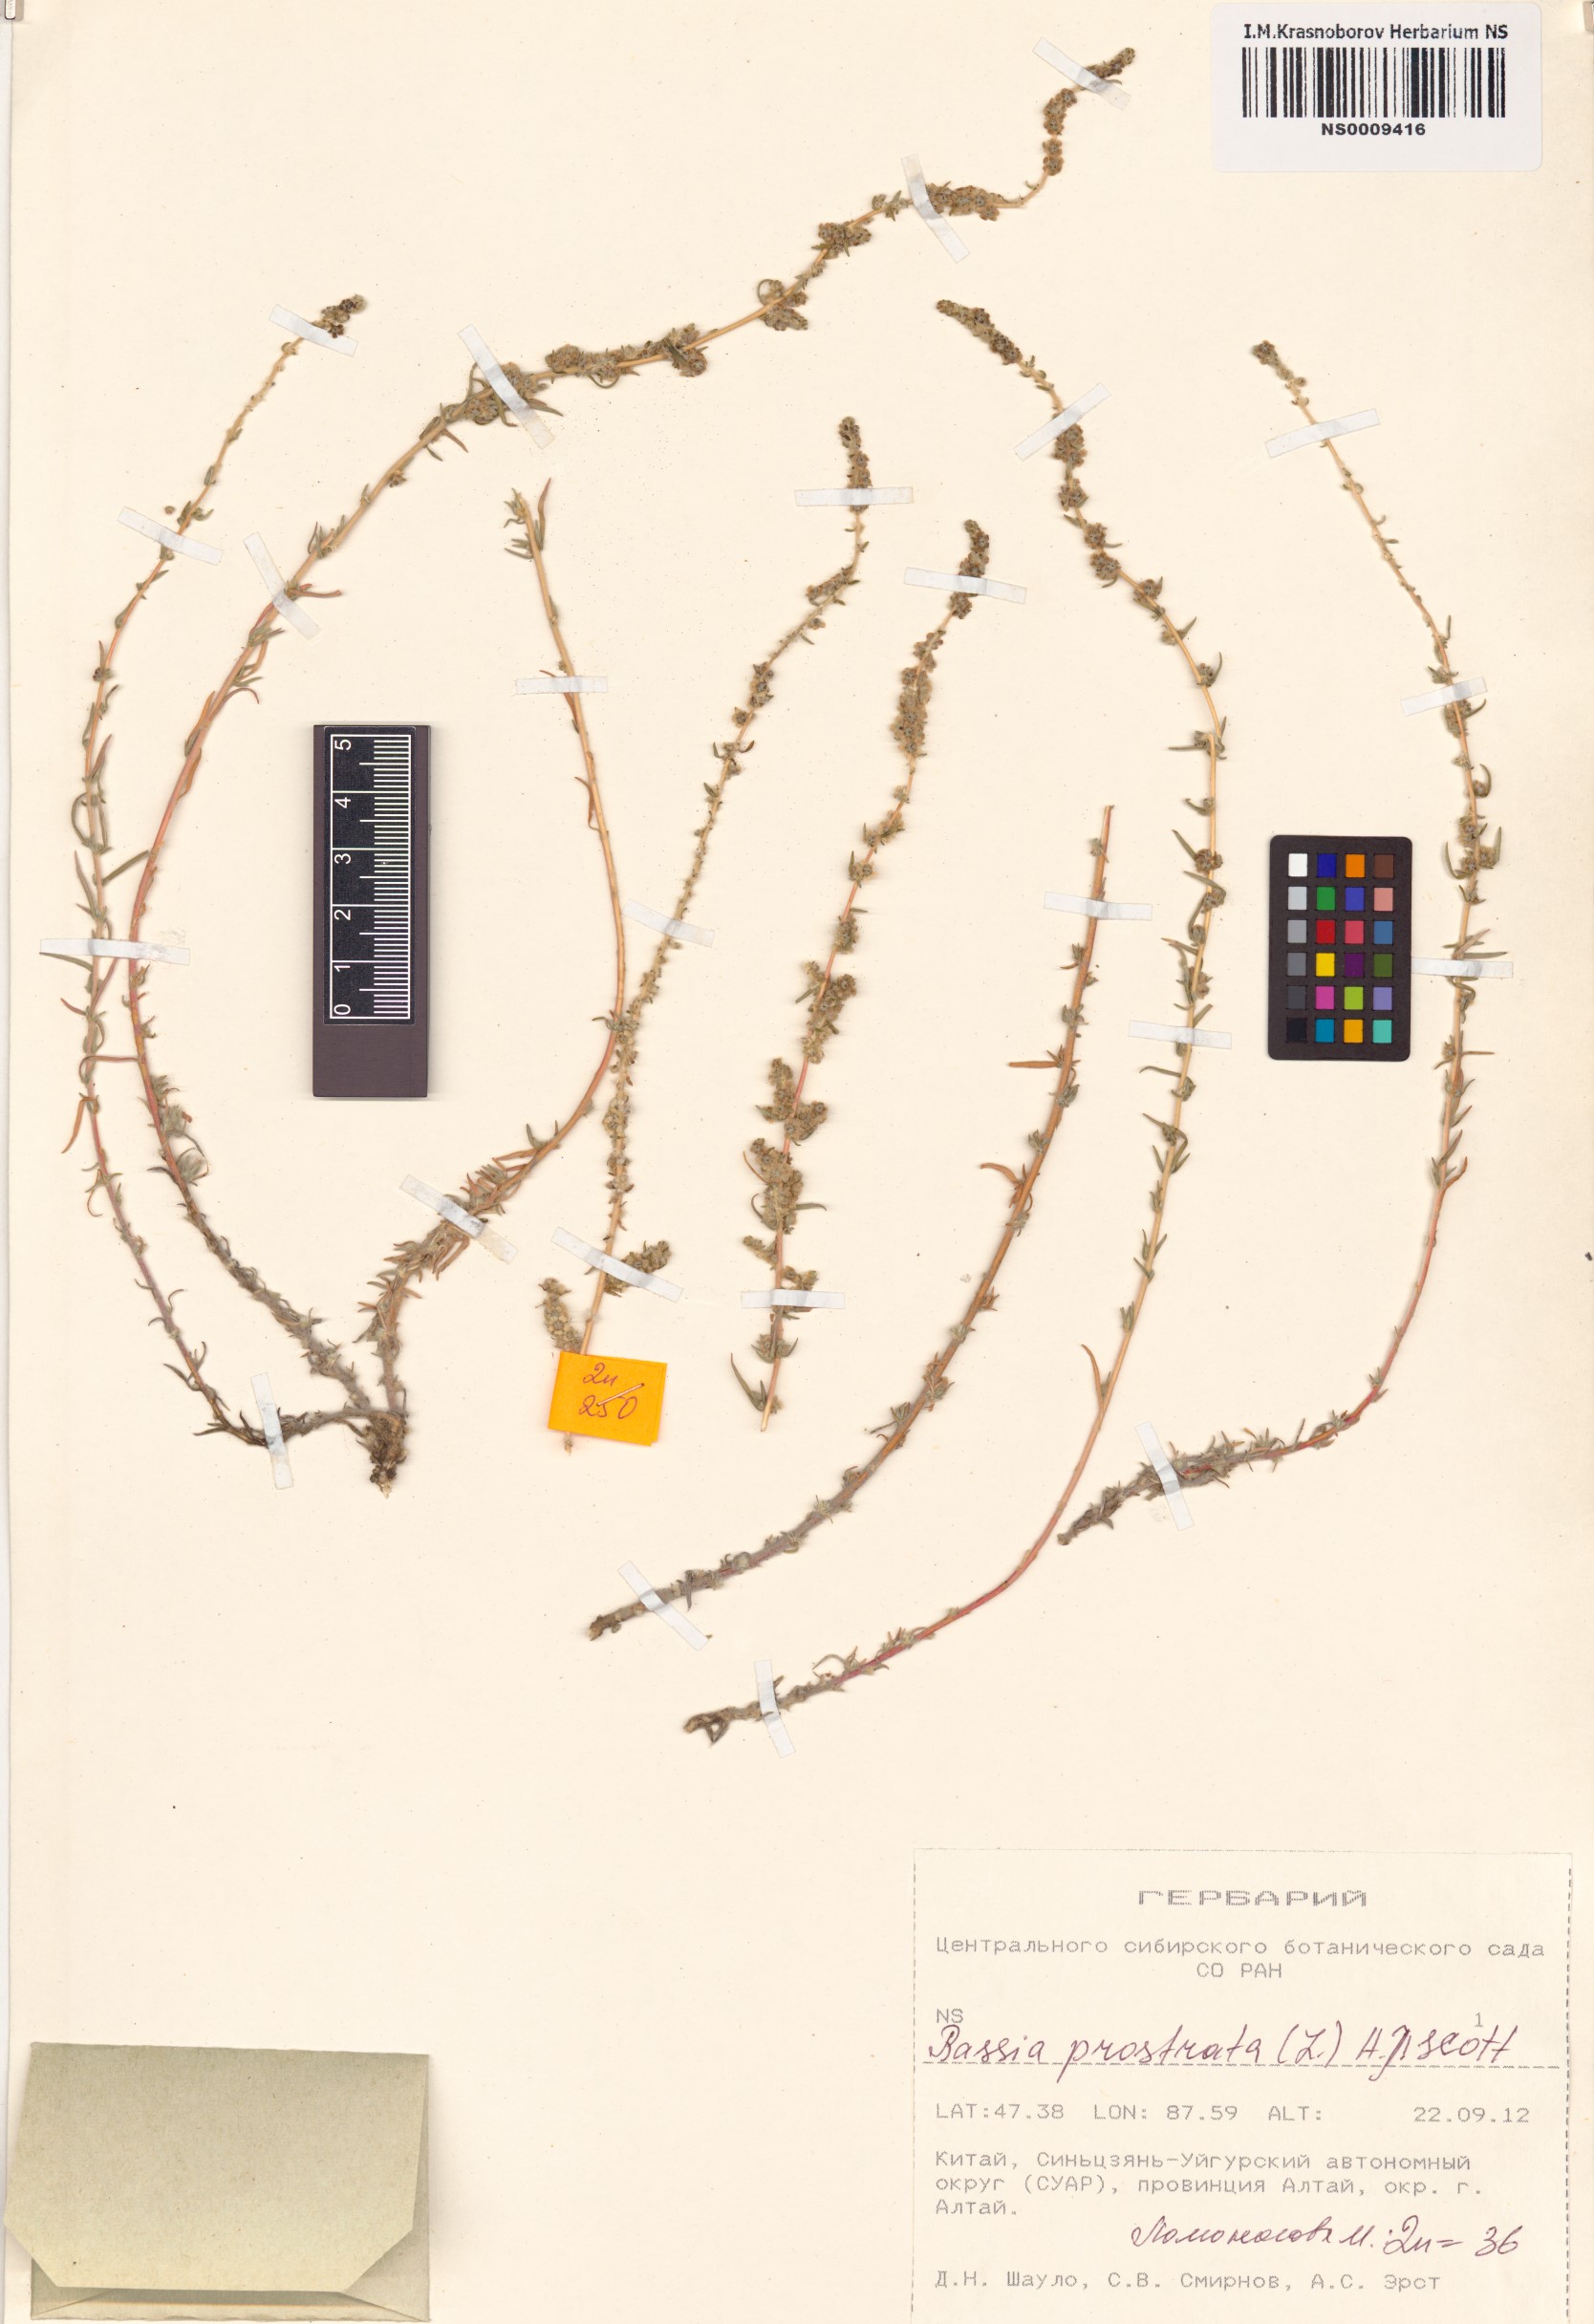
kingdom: Plantae
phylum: Tracheophyta
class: Magnoliopsida
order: Caryophyllales
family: Amaranthaceae
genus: Bassia
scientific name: Bassia prostrata
